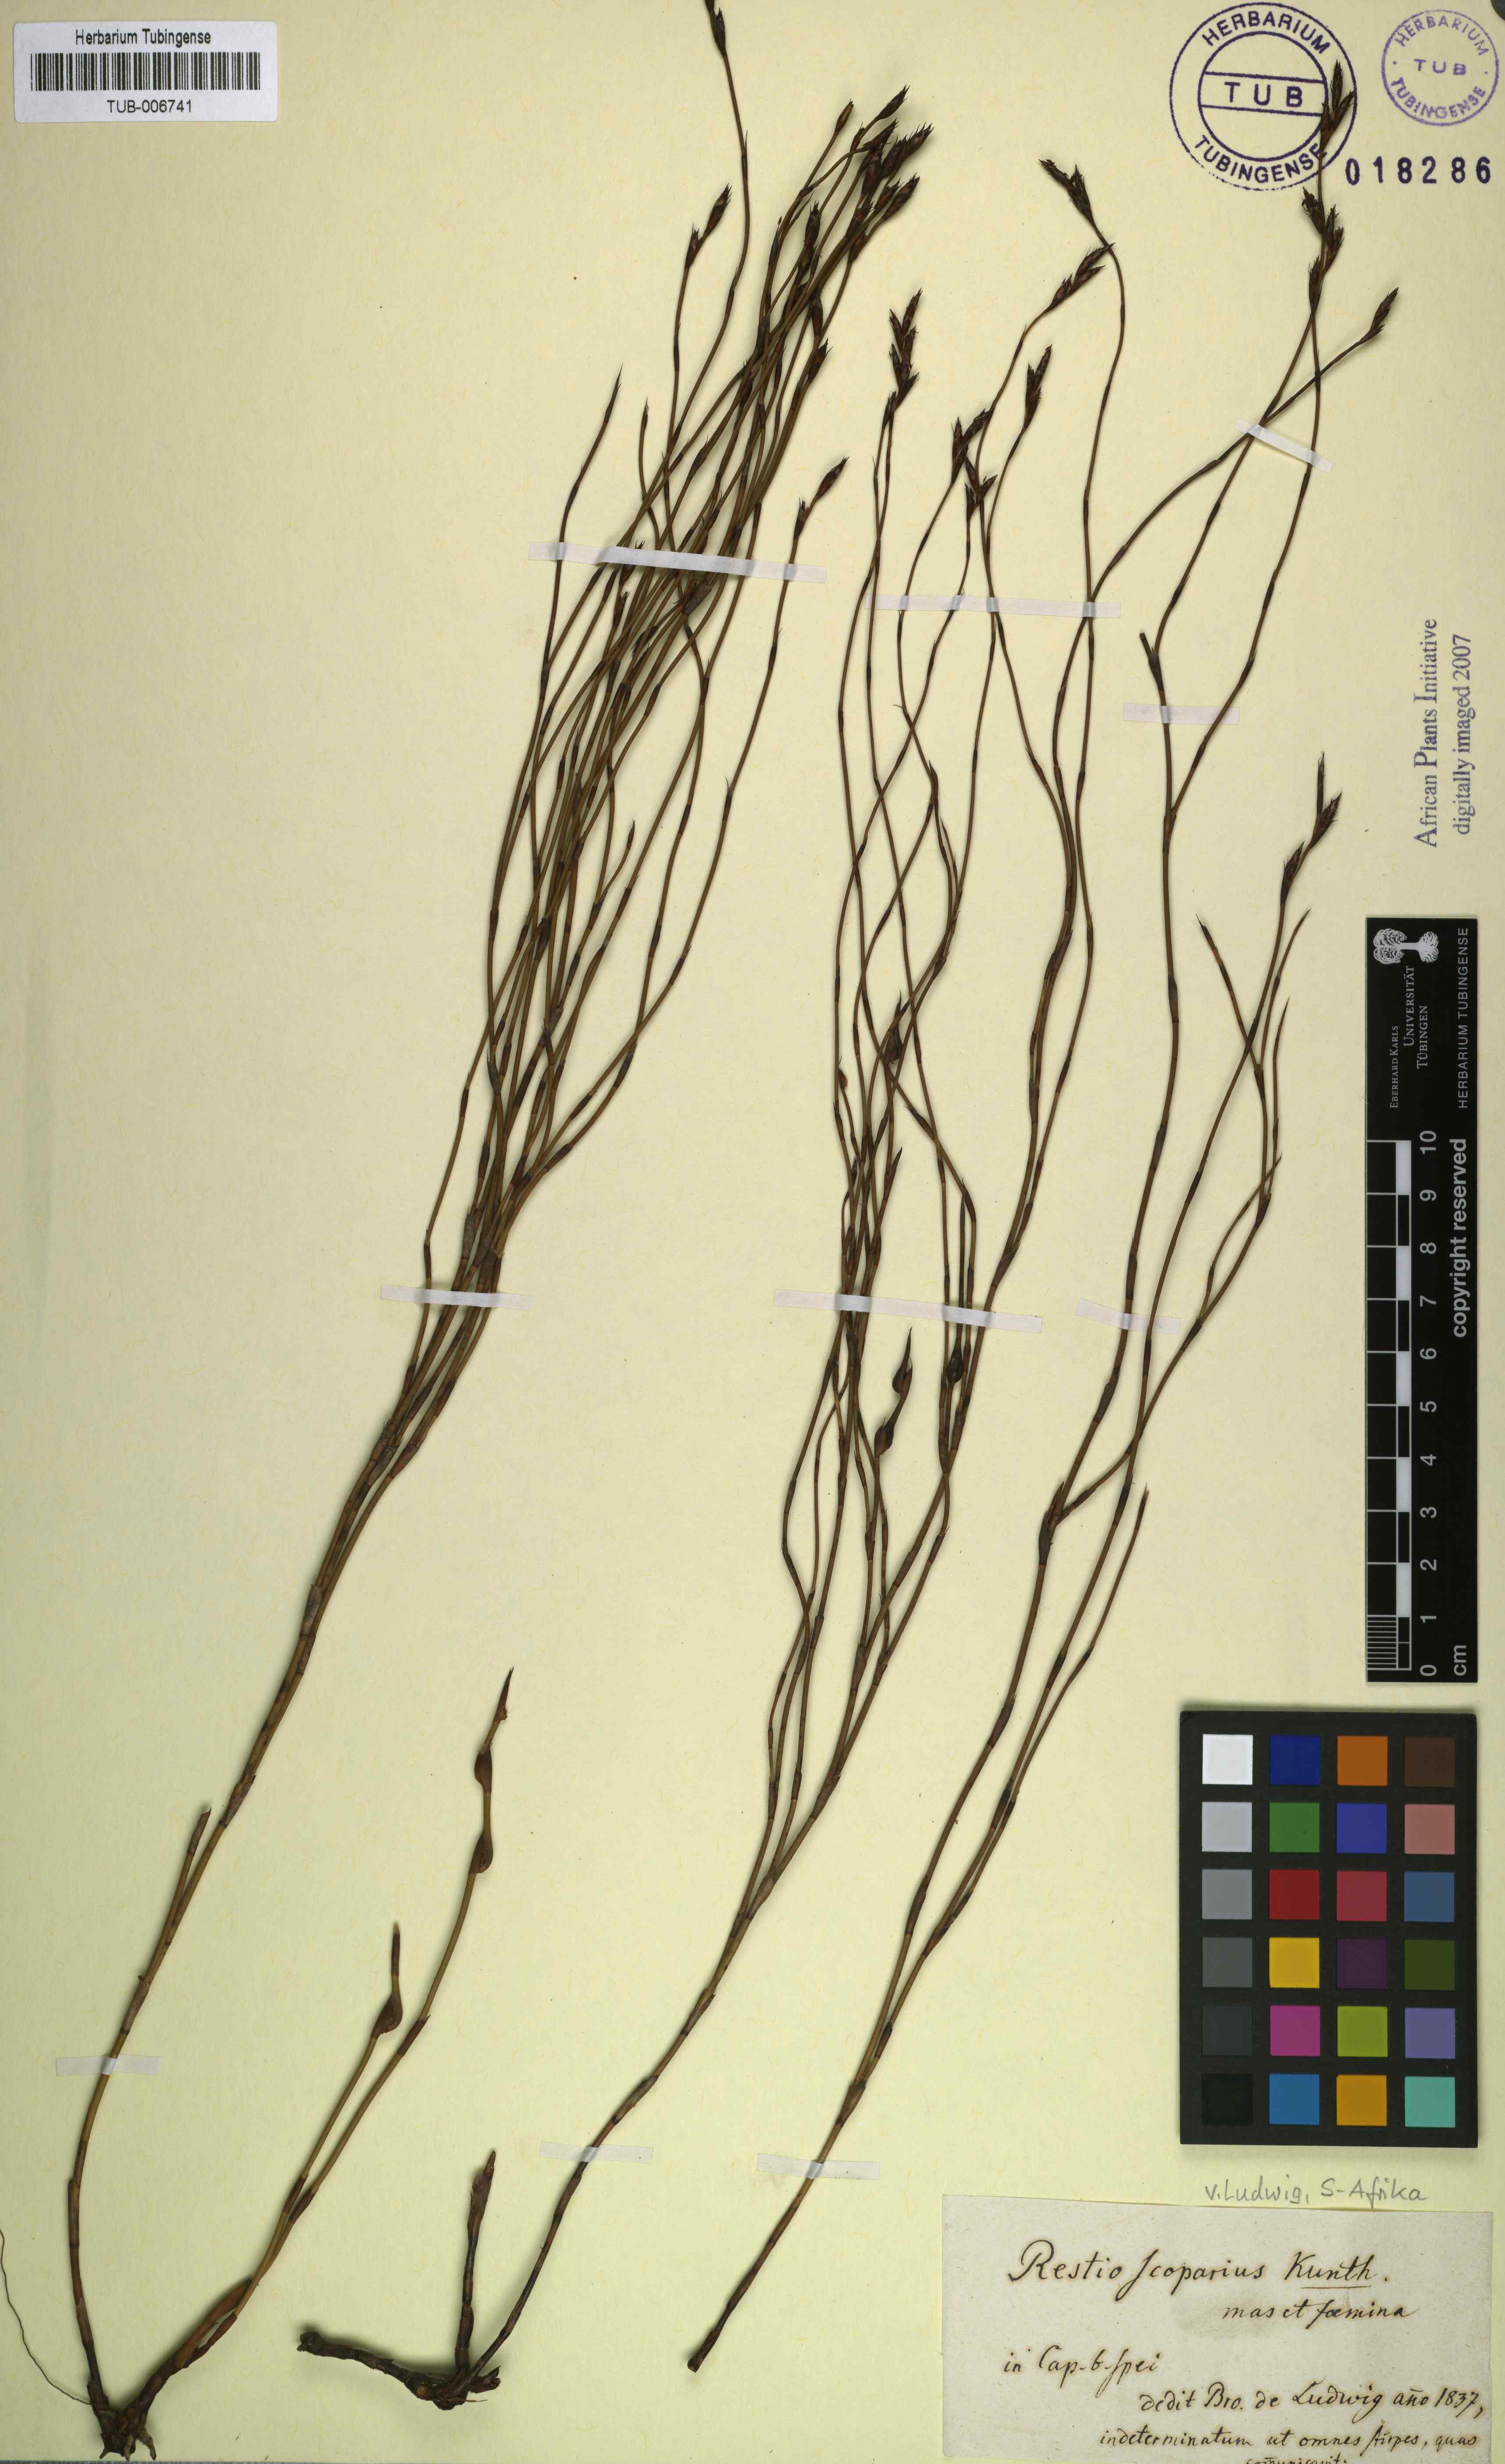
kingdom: Plantae
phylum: Tracheophyta
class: Liliopsida
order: Poales
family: Restionaceae
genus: Restio
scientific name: Restio sieberi
